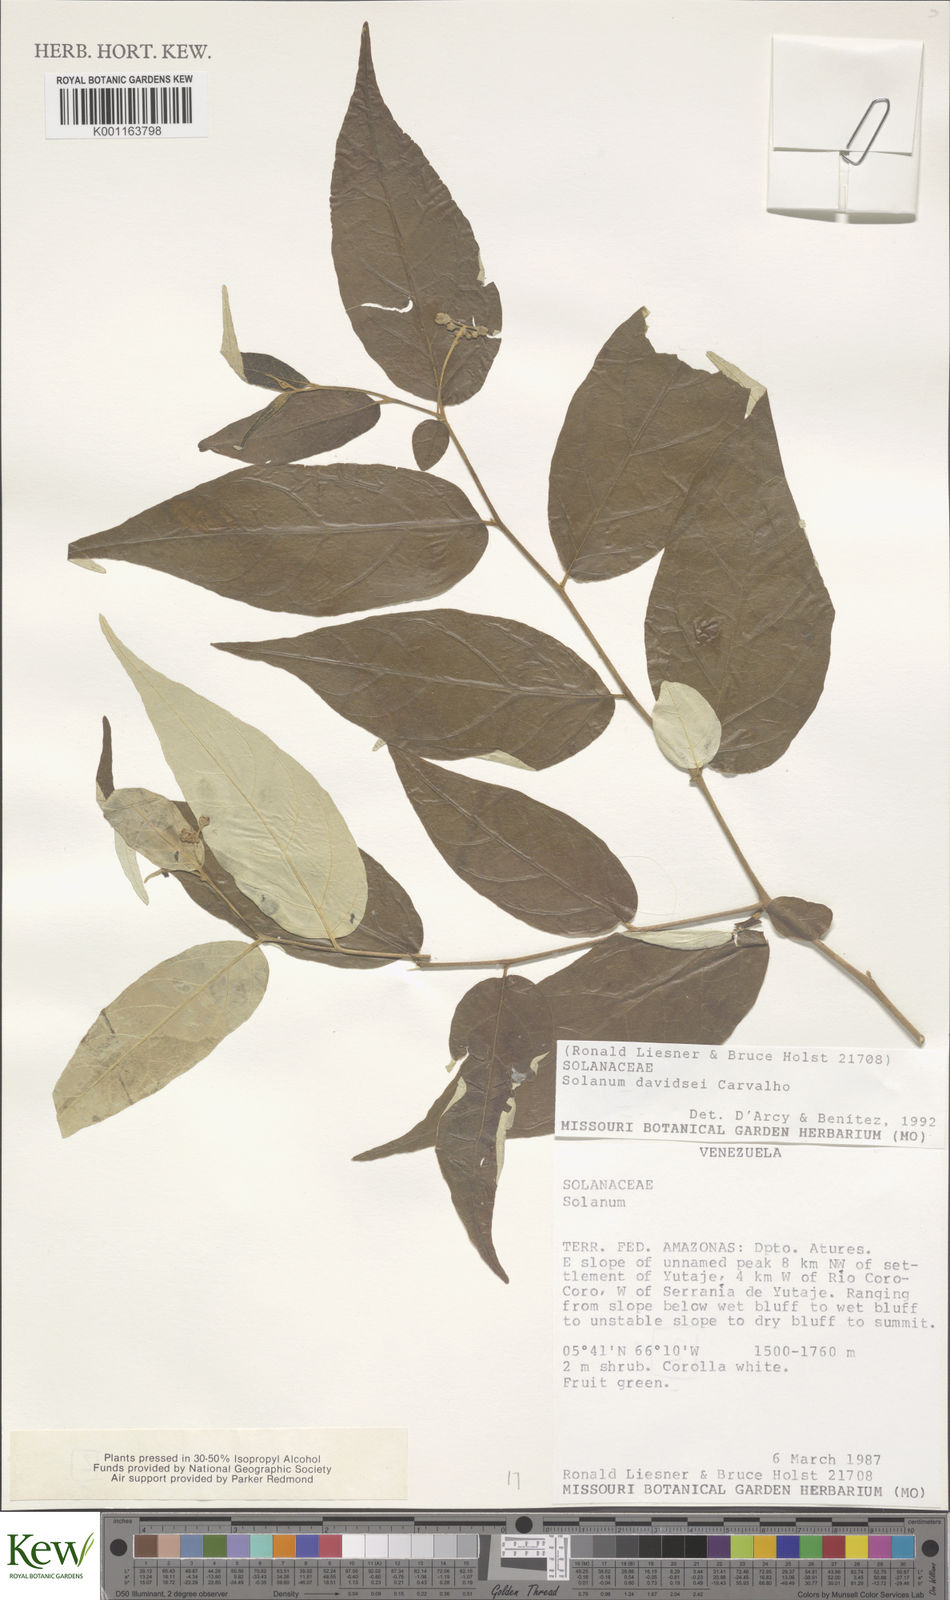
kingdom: Plantae
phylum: Tracheophyta
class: Magnoliopsida
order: Solanales
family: Solanaceae
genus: Solanum
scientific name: Solanum davidsei
